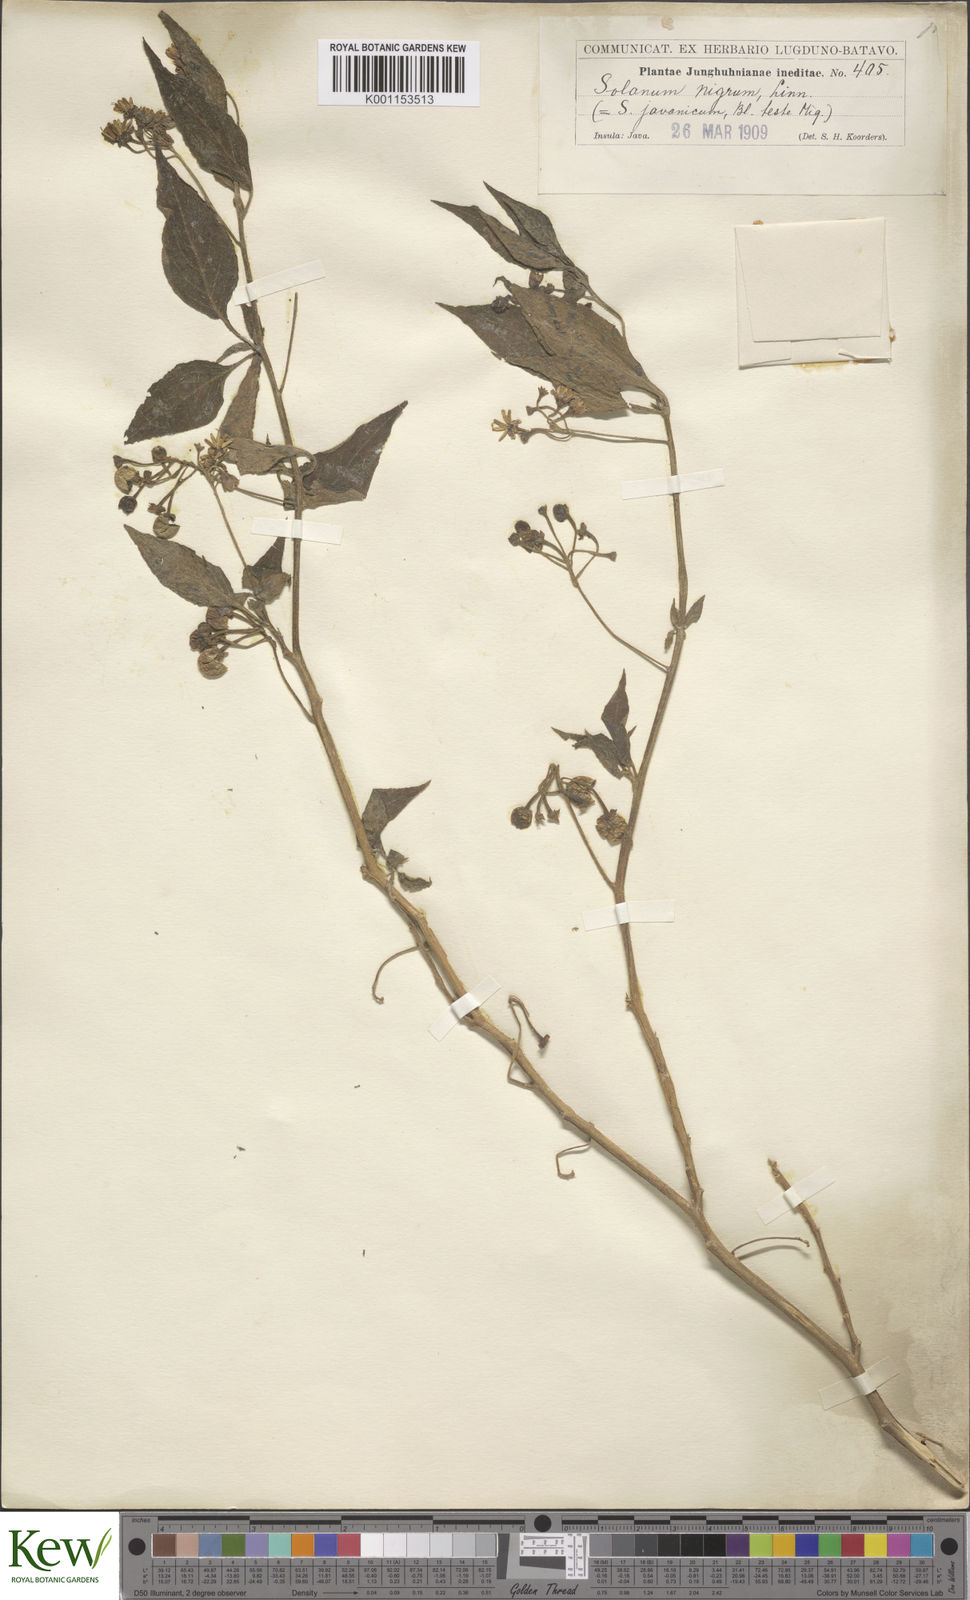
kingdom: Plantae
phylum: Tracheophyta
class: Magnoliopsida
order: Solanales
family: Solanaceae
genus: Solanum
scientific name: Solanum nigrum
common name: Black nightshade
